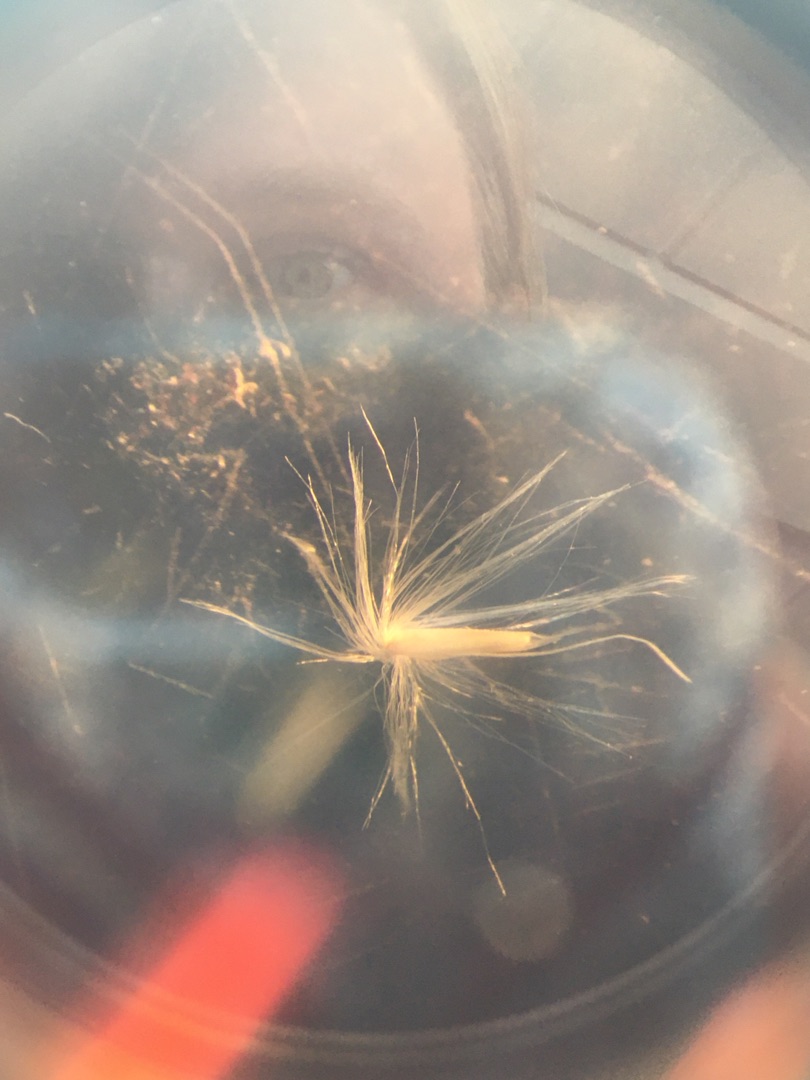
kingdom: Plantae
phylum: Tracheophyta
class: Liliopsida
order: Poales
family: Poaceae
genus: Calamagrostis
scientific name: Calamagrostis epigejos
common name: Bjerg-rørhvene
